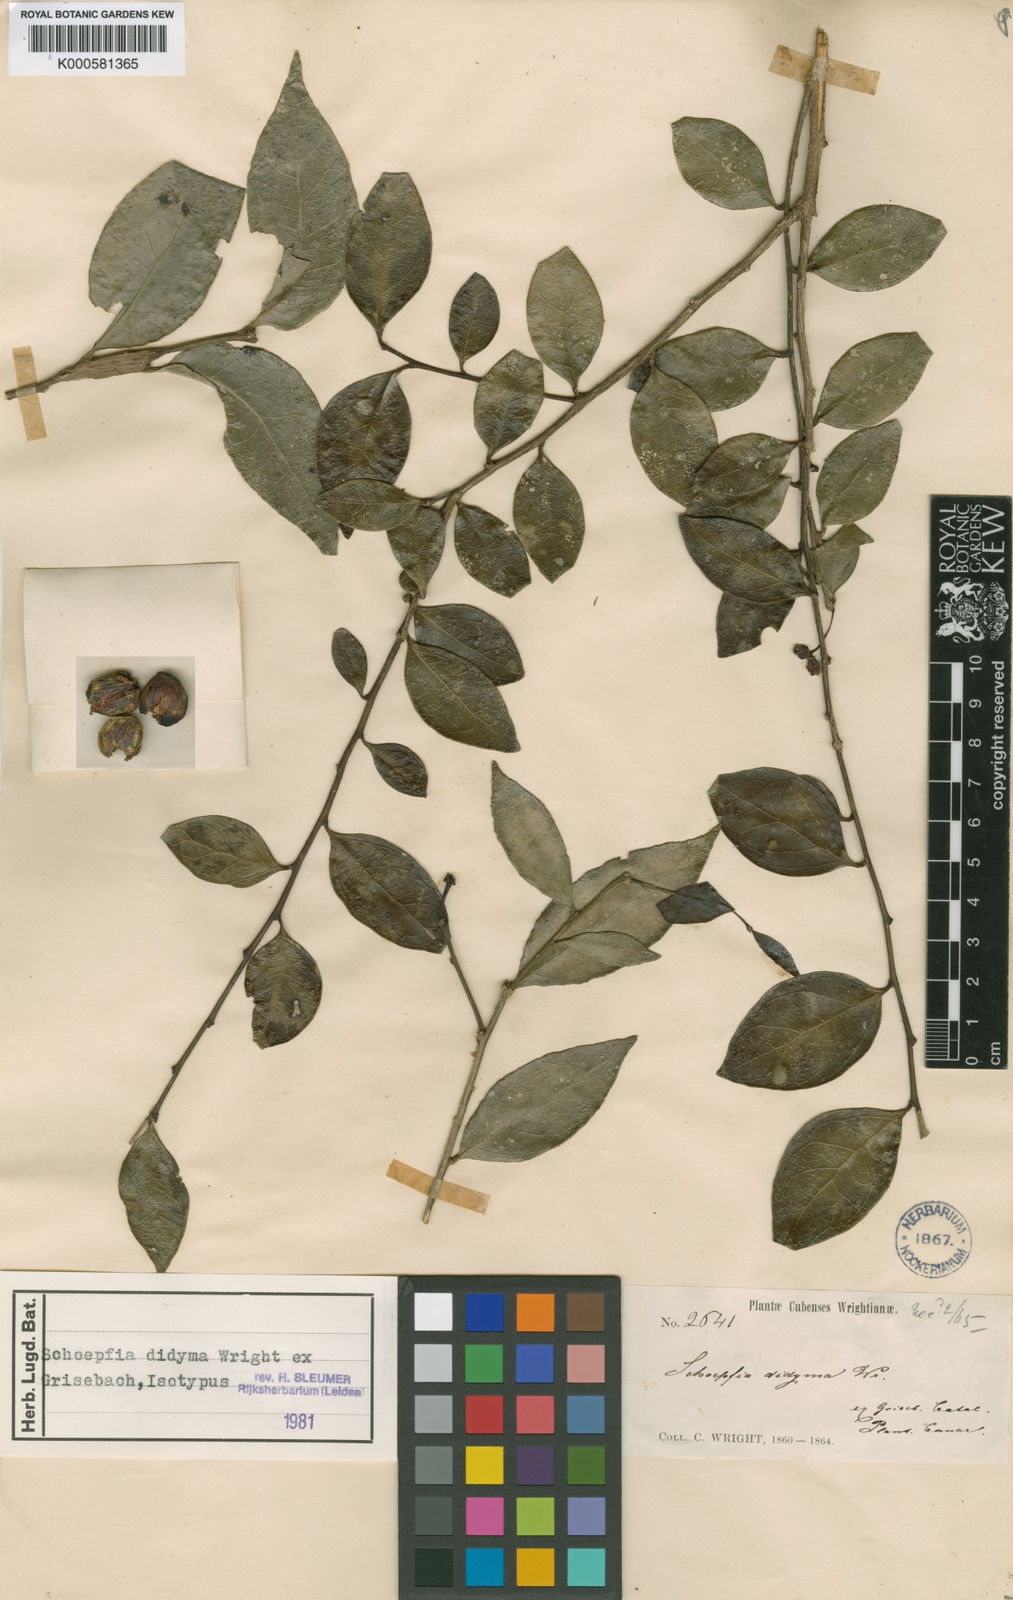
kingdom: Plantae
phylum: Tracheophyta
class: Magnoliopsida
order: Santalales
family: Schoepfiaceae
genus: Schoepfia
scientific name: Schoepfia didyma
